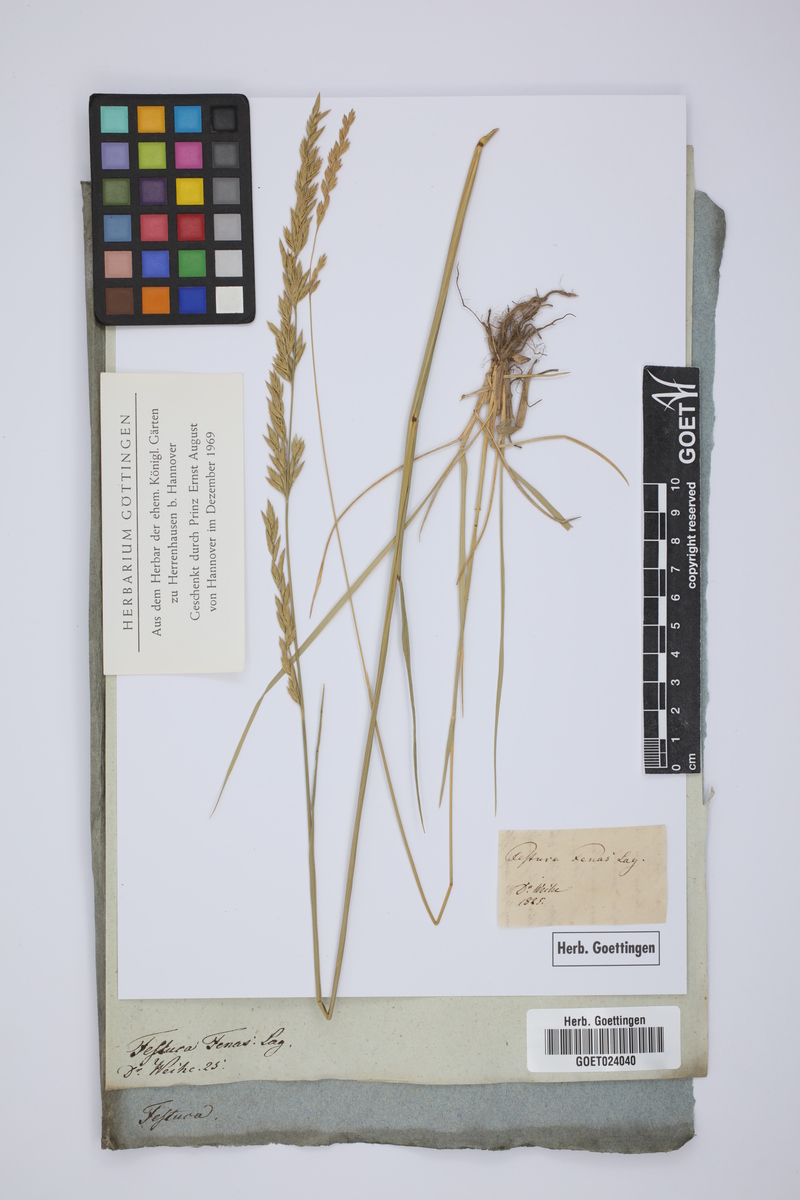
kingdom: Plantae
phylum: Tracheophyta
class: Liliopsida
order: Poales
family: Poaceae
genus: Lolium
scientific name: Lolium arundinaceum
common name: Reed fescue
